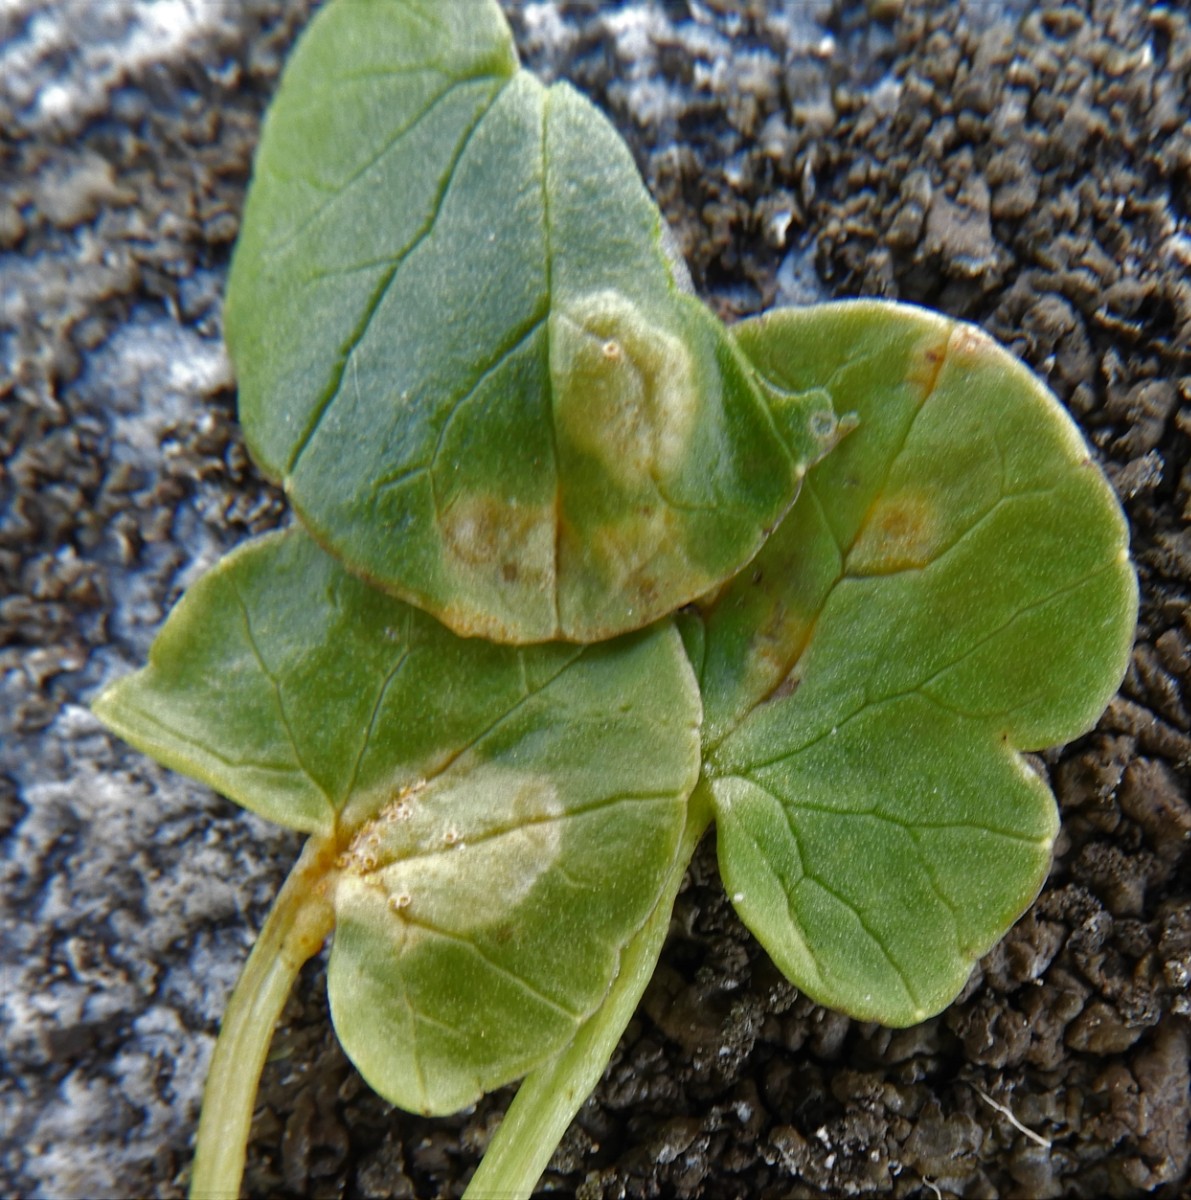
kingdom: Fungi
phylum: Basidiomycota
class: Pucciniomycetes
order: Pucciniales
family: Pucciniaceae
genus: Uromyces
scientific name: Uromyces dactylidis
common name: ranunkel-encellerust
